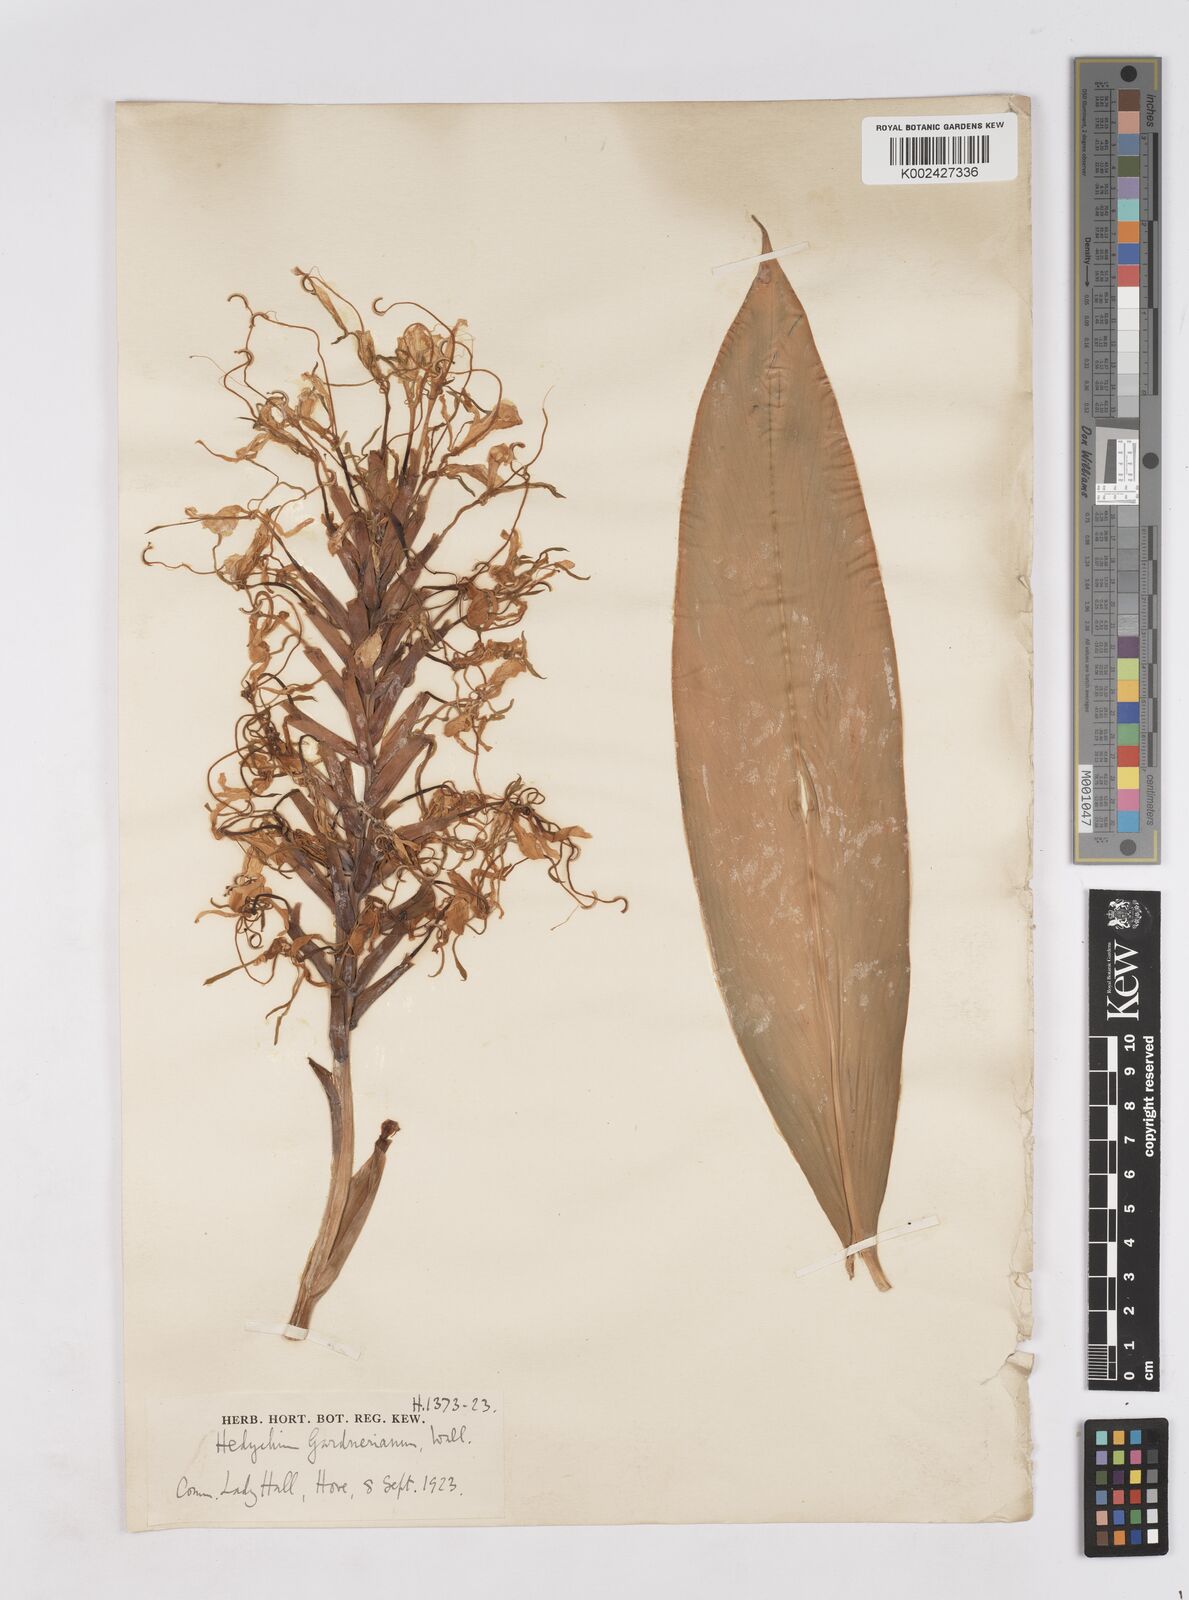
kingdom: Plantae
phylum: Tracheophyta
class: Liliopsida
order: Zingiberales
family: Zingiberaceae
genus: Hedychium
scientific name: Hedychium gardnerianum
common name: Himalayan ginger
